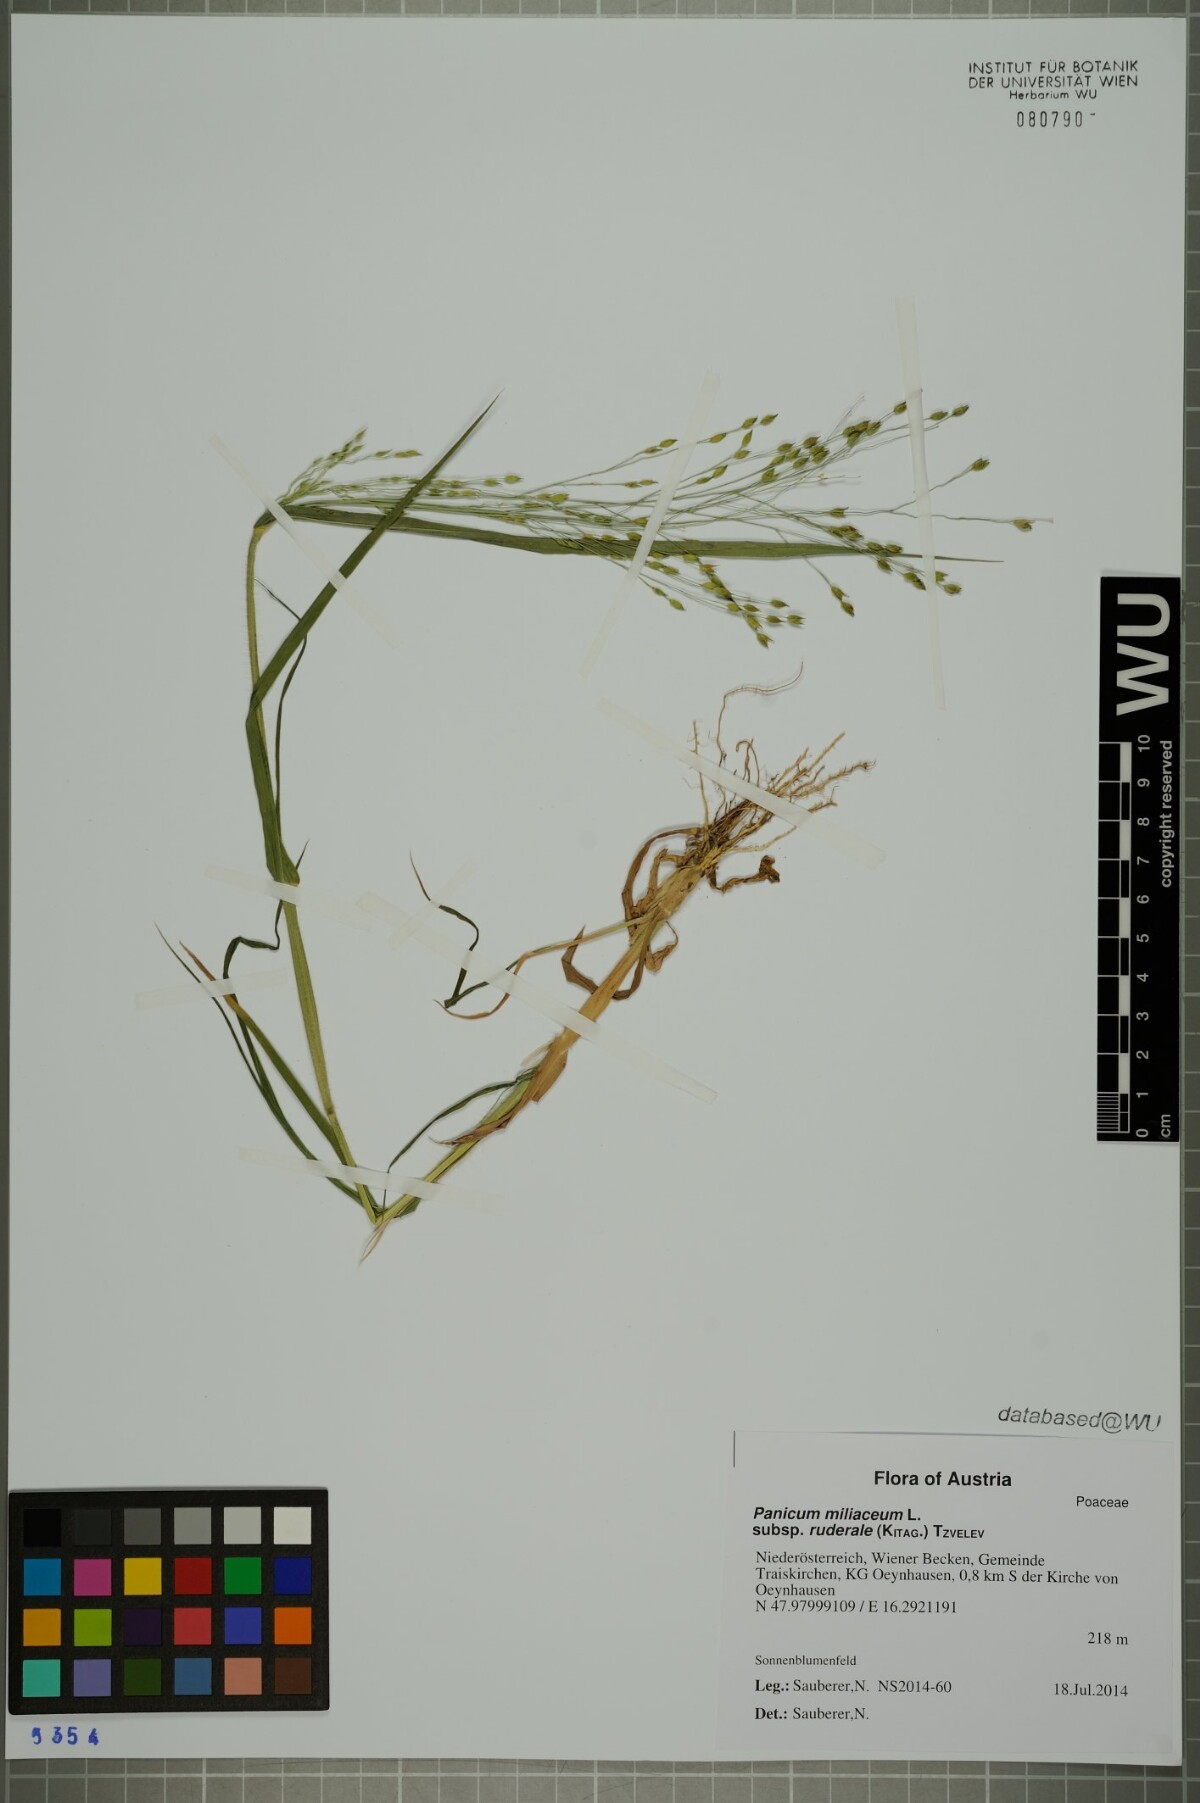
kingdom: Plantae
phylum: Tracheophyta
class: Liliopsida
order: Poales
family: Poaceae
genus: Panicum
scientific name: Panicum miliaceum
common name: Common millet
